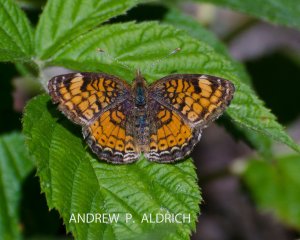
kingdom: Animalia
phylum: Arthropoda
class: Insecta
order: Lepidoptera
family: Nymphalidae
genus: Phyciodes
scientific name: Phyciodes tharos
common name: Northern Crescent
